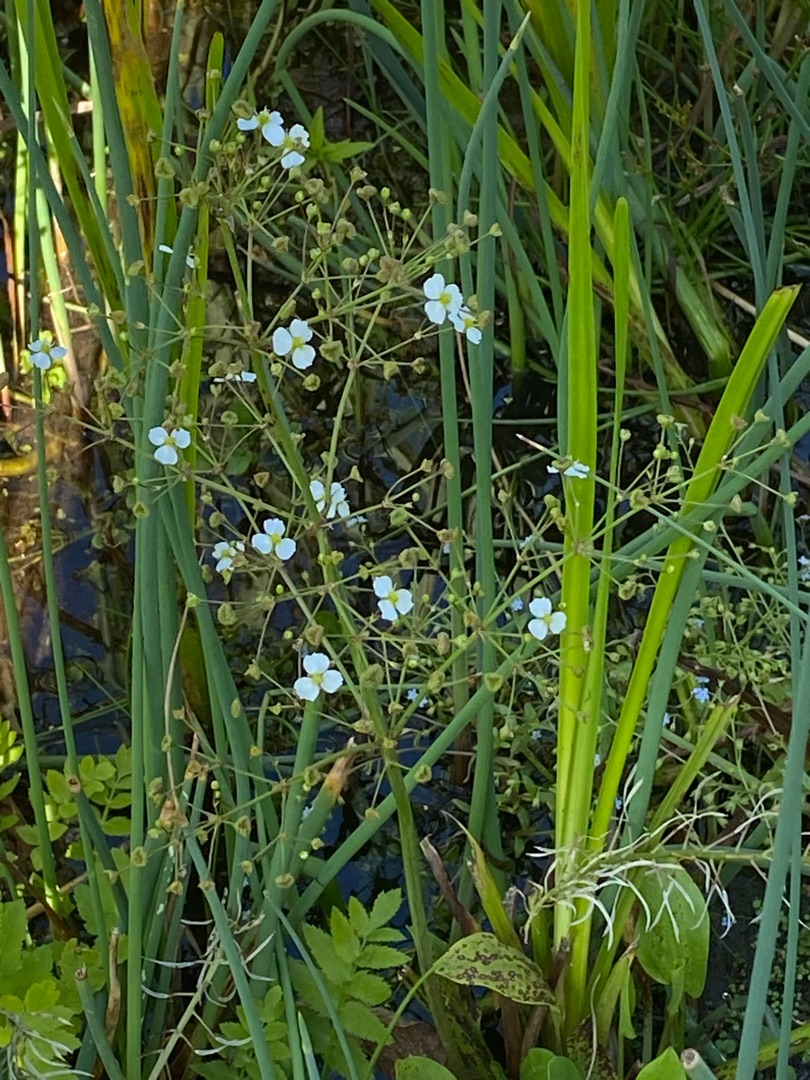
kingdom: Plantae
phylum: Tracheophyta
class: Liliopsida
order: Alismatales
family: Alismataceae
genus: Alisma
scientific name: Alisma plantago-aquatica
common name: Vejbred-skeblad
